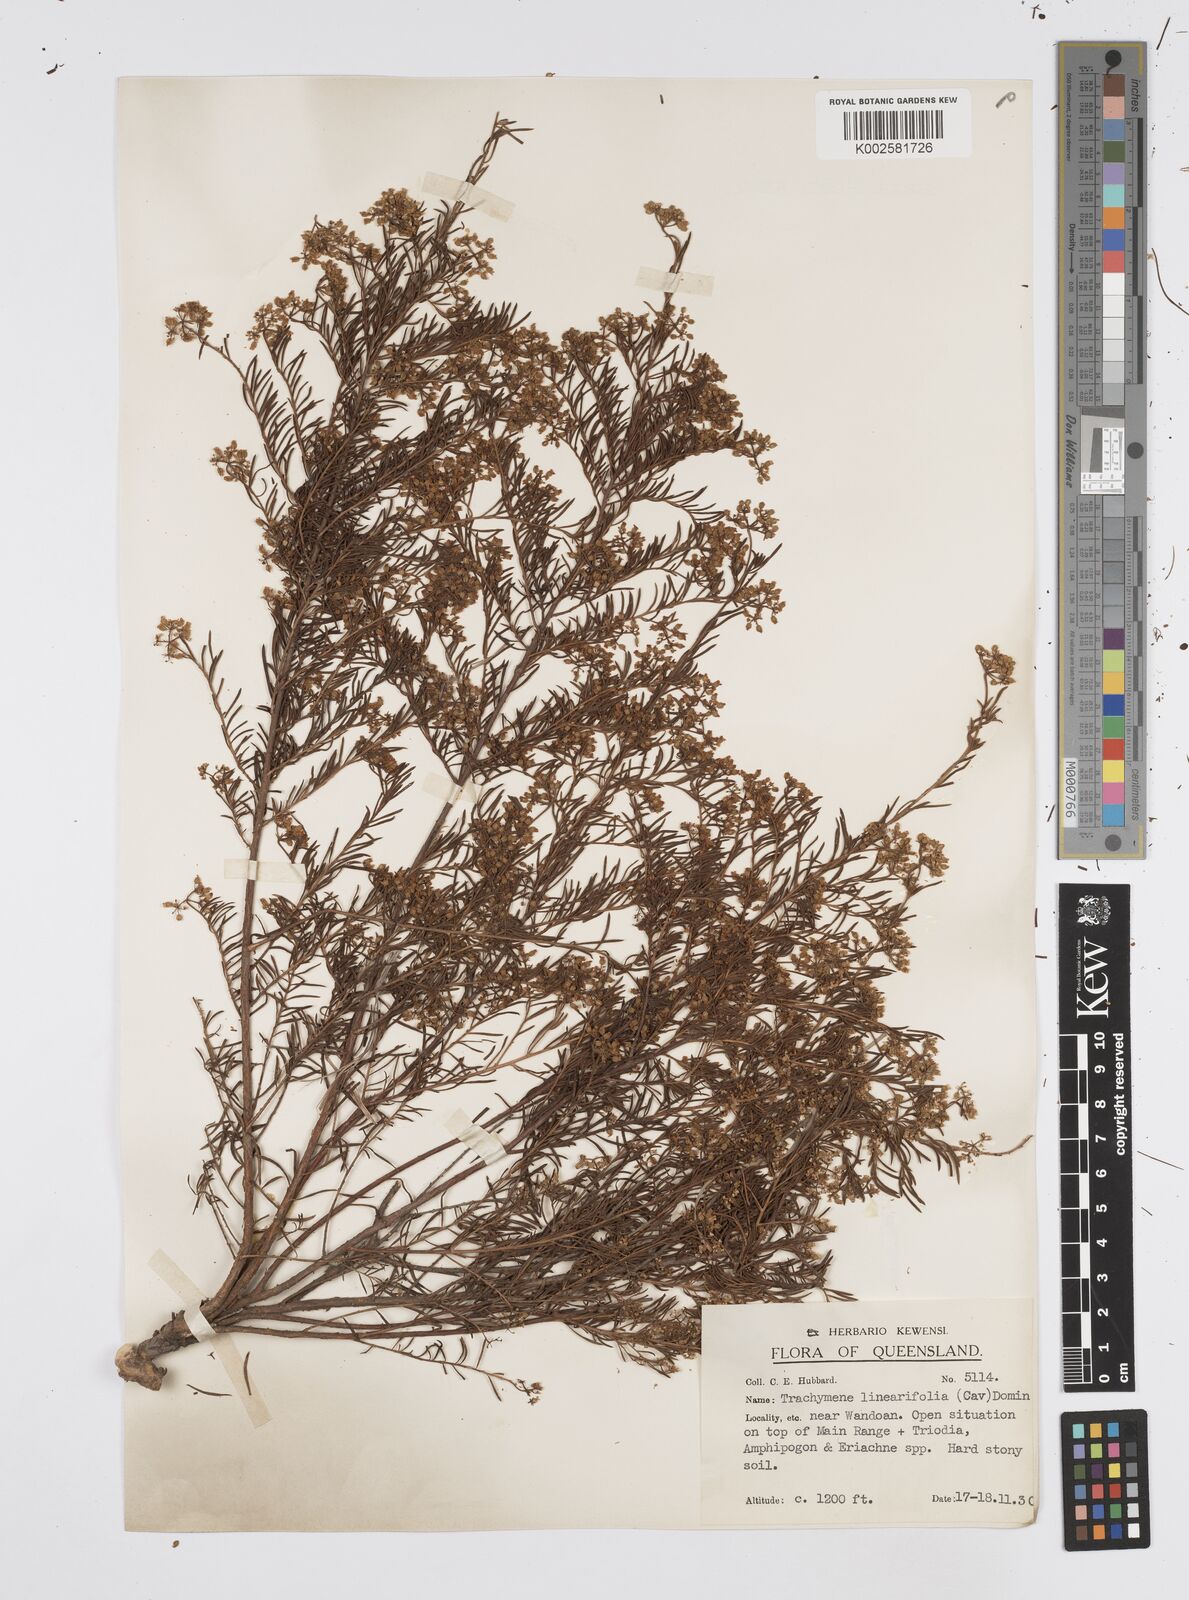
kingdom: Plantae
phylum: Tracheophyta
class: Magnoliopsida
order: Apiales
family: Apiaceae
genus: Platysace
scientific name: Platysace ericoides
